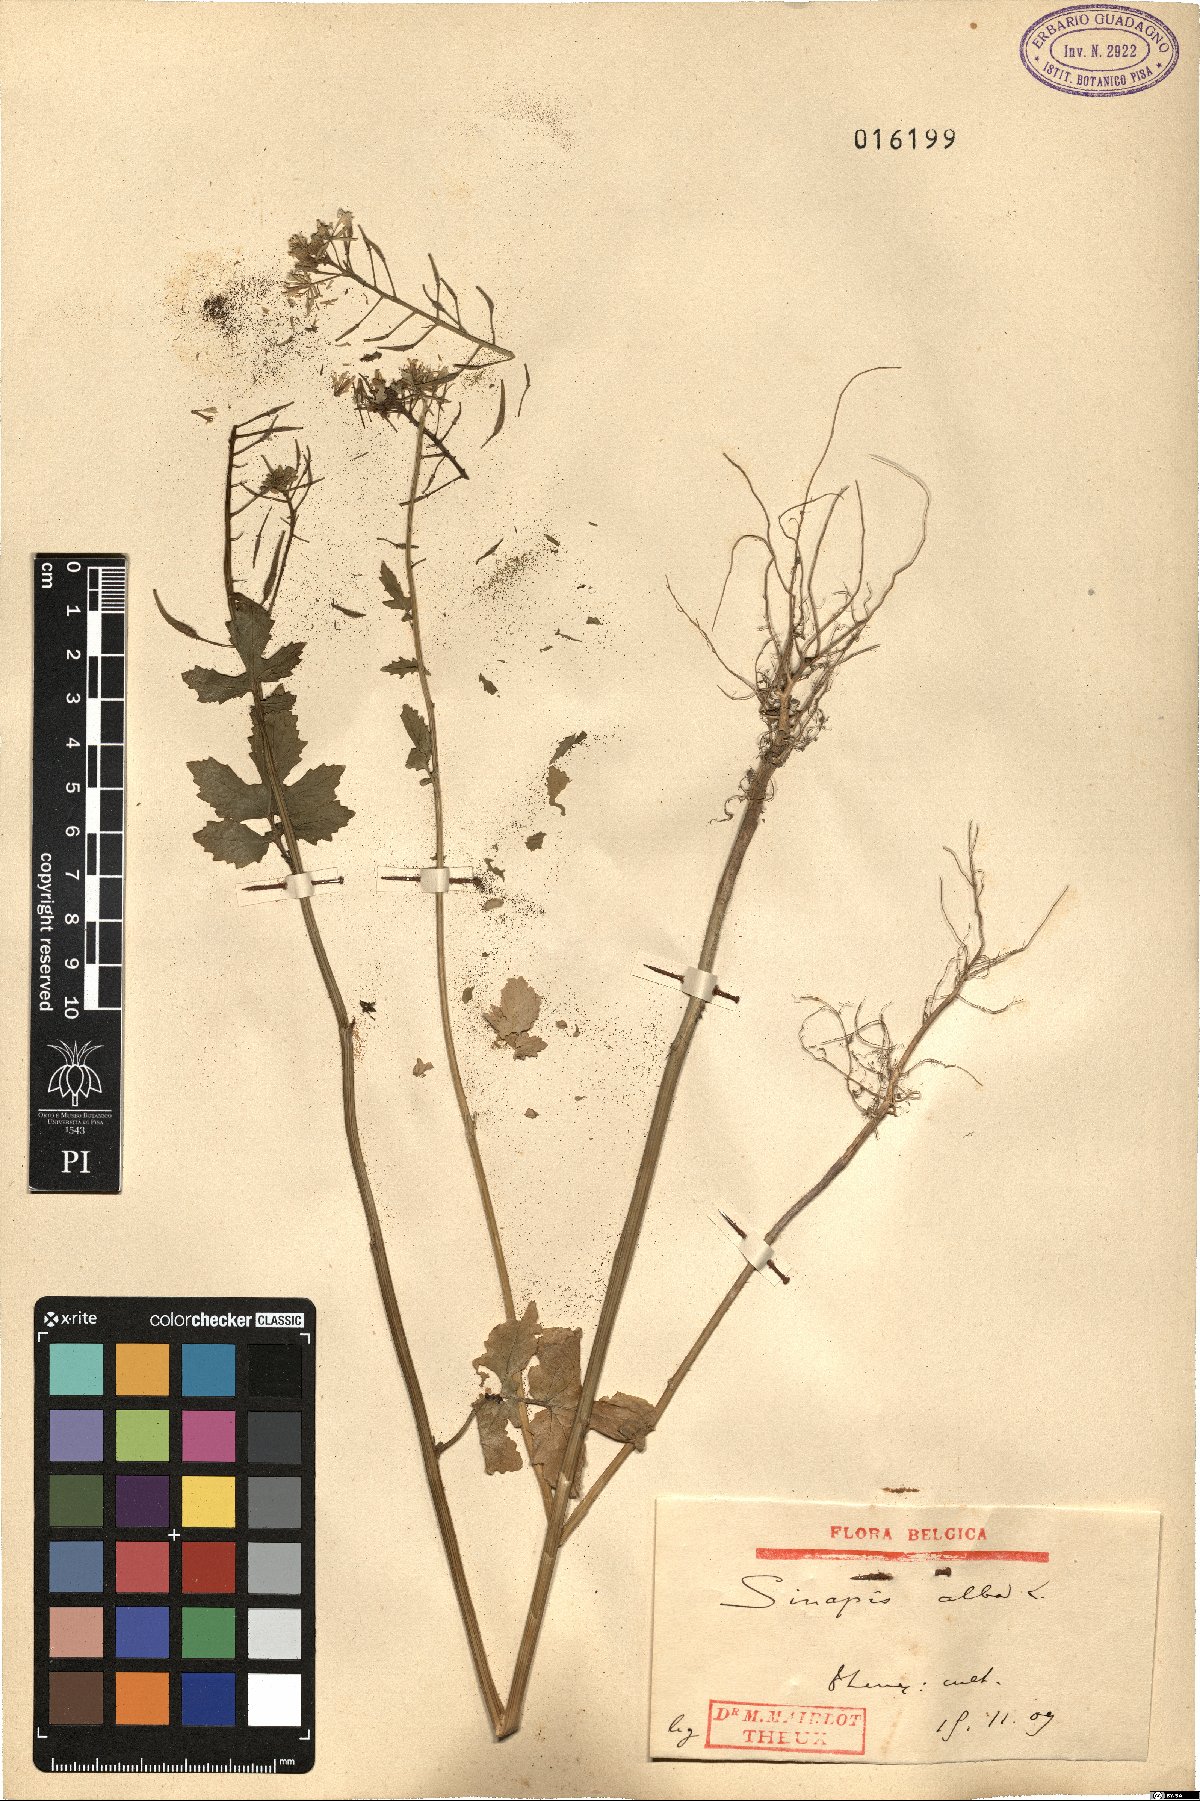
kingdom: Plantae
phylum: Tracheophyta
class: Magnoliopsida
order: Brassicales
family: Brassicaceae
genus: Sinapis
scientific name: Sinapis alba
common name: White mustard
